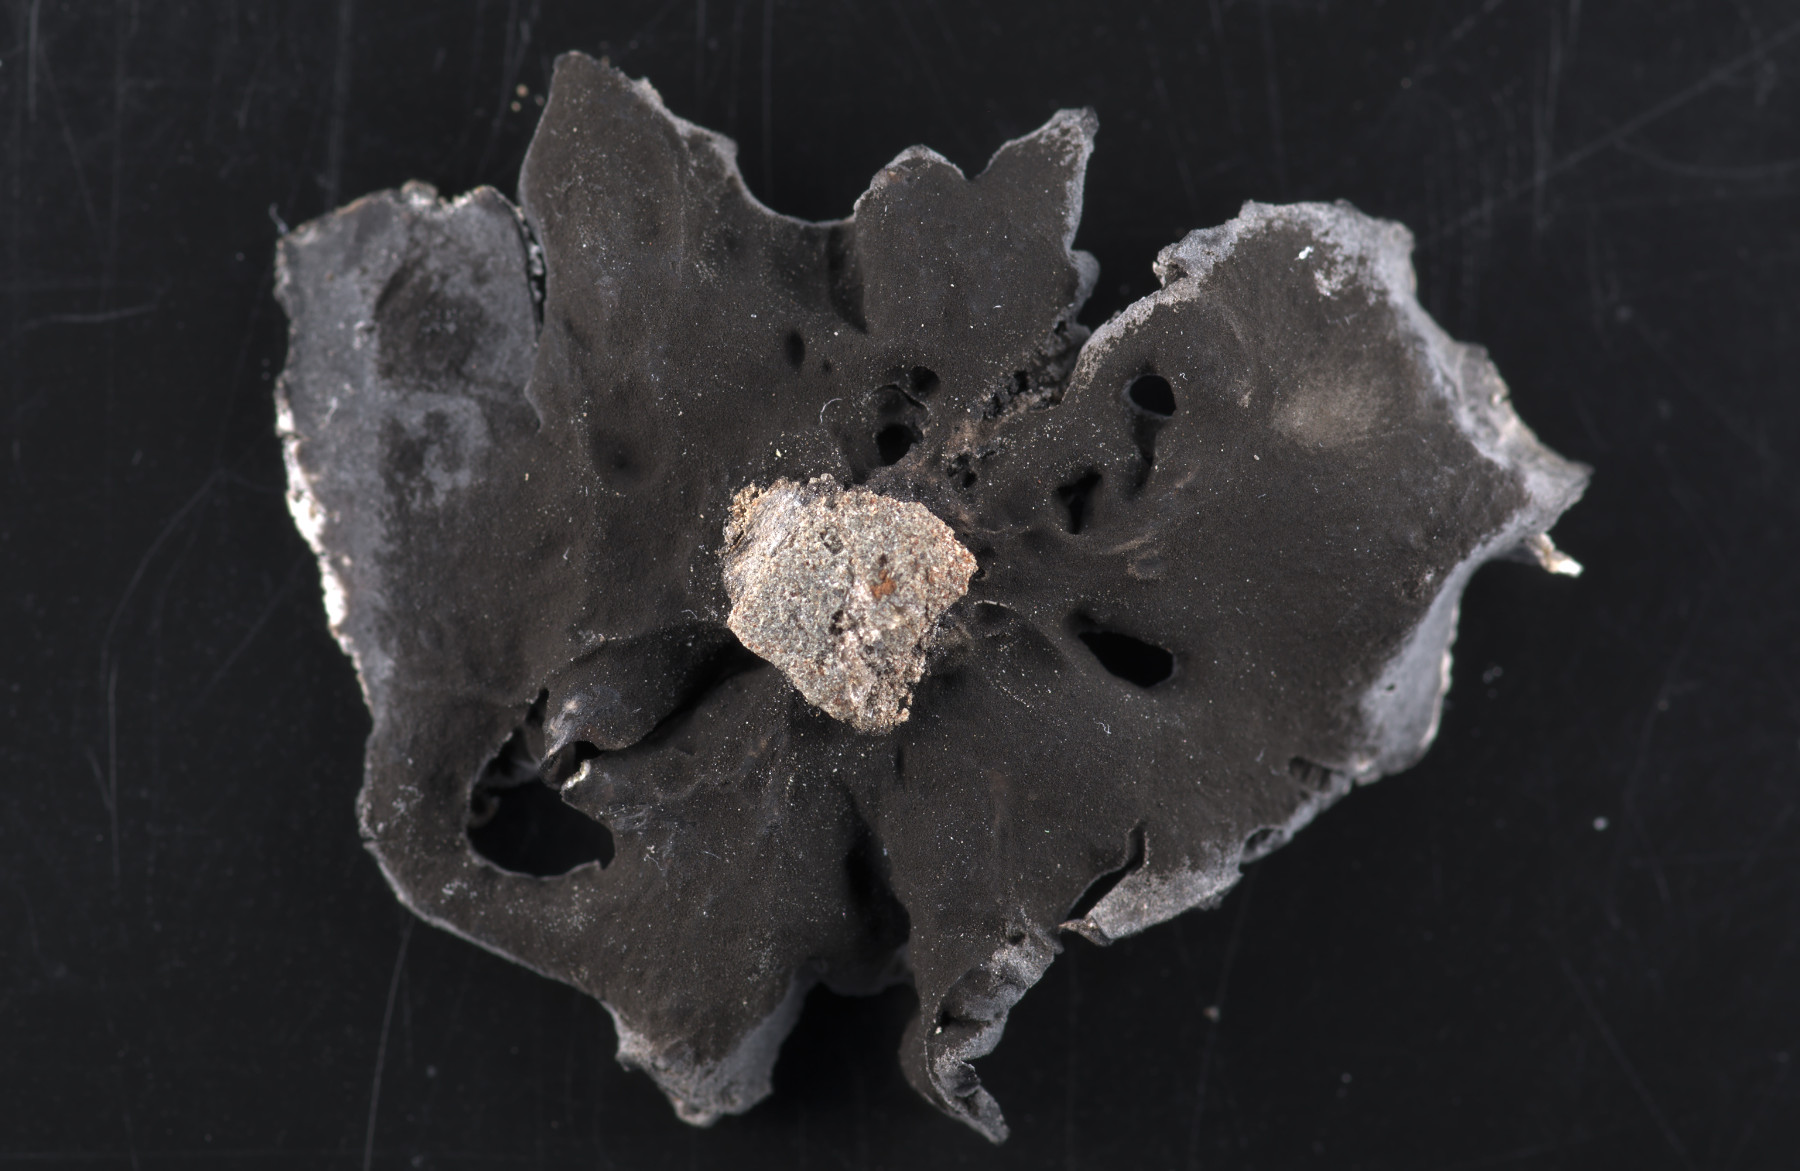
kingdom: Fungi
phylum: Ascomycota
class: Lecanoromycetes
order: Umbilicariales
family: Umbilicariaceae
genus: Umbilicaria
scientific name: Umbilicaria decussata
